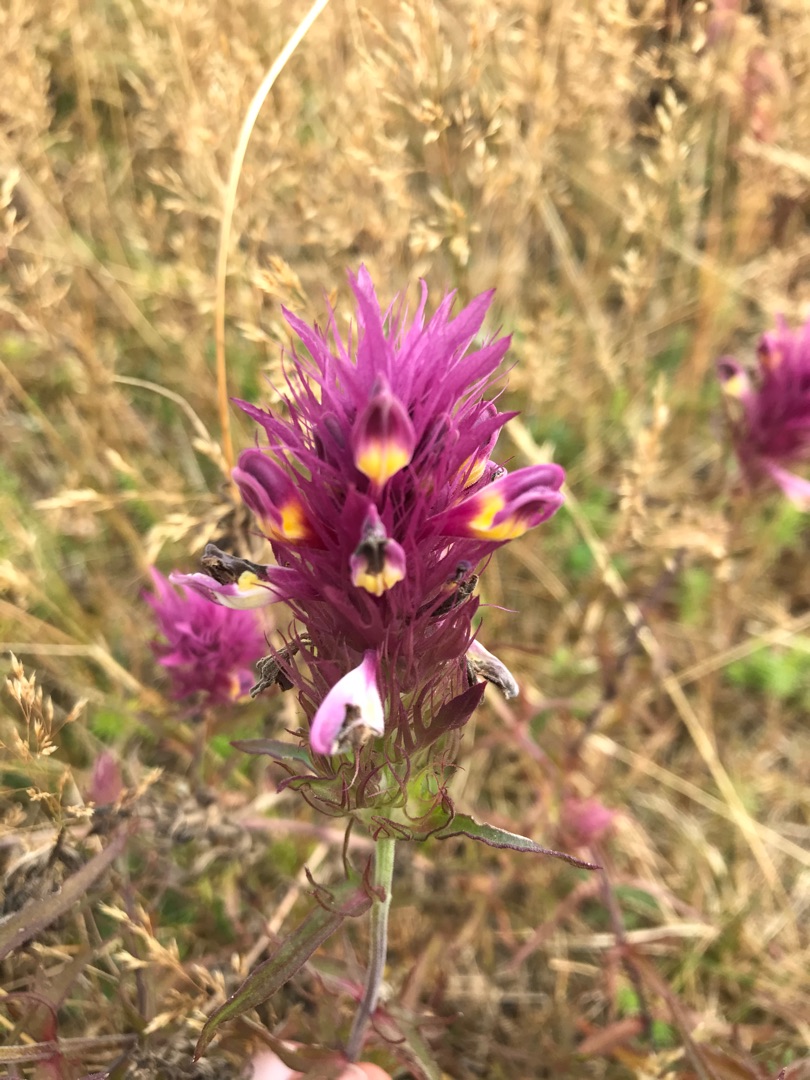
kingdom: Plantae
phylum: Tracheophyta
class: Magnoliopsida
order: Lamiales
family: Orobanchaceae
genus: Melampyrum
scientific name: Melampyrum arvense
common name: Ager-kohvede
